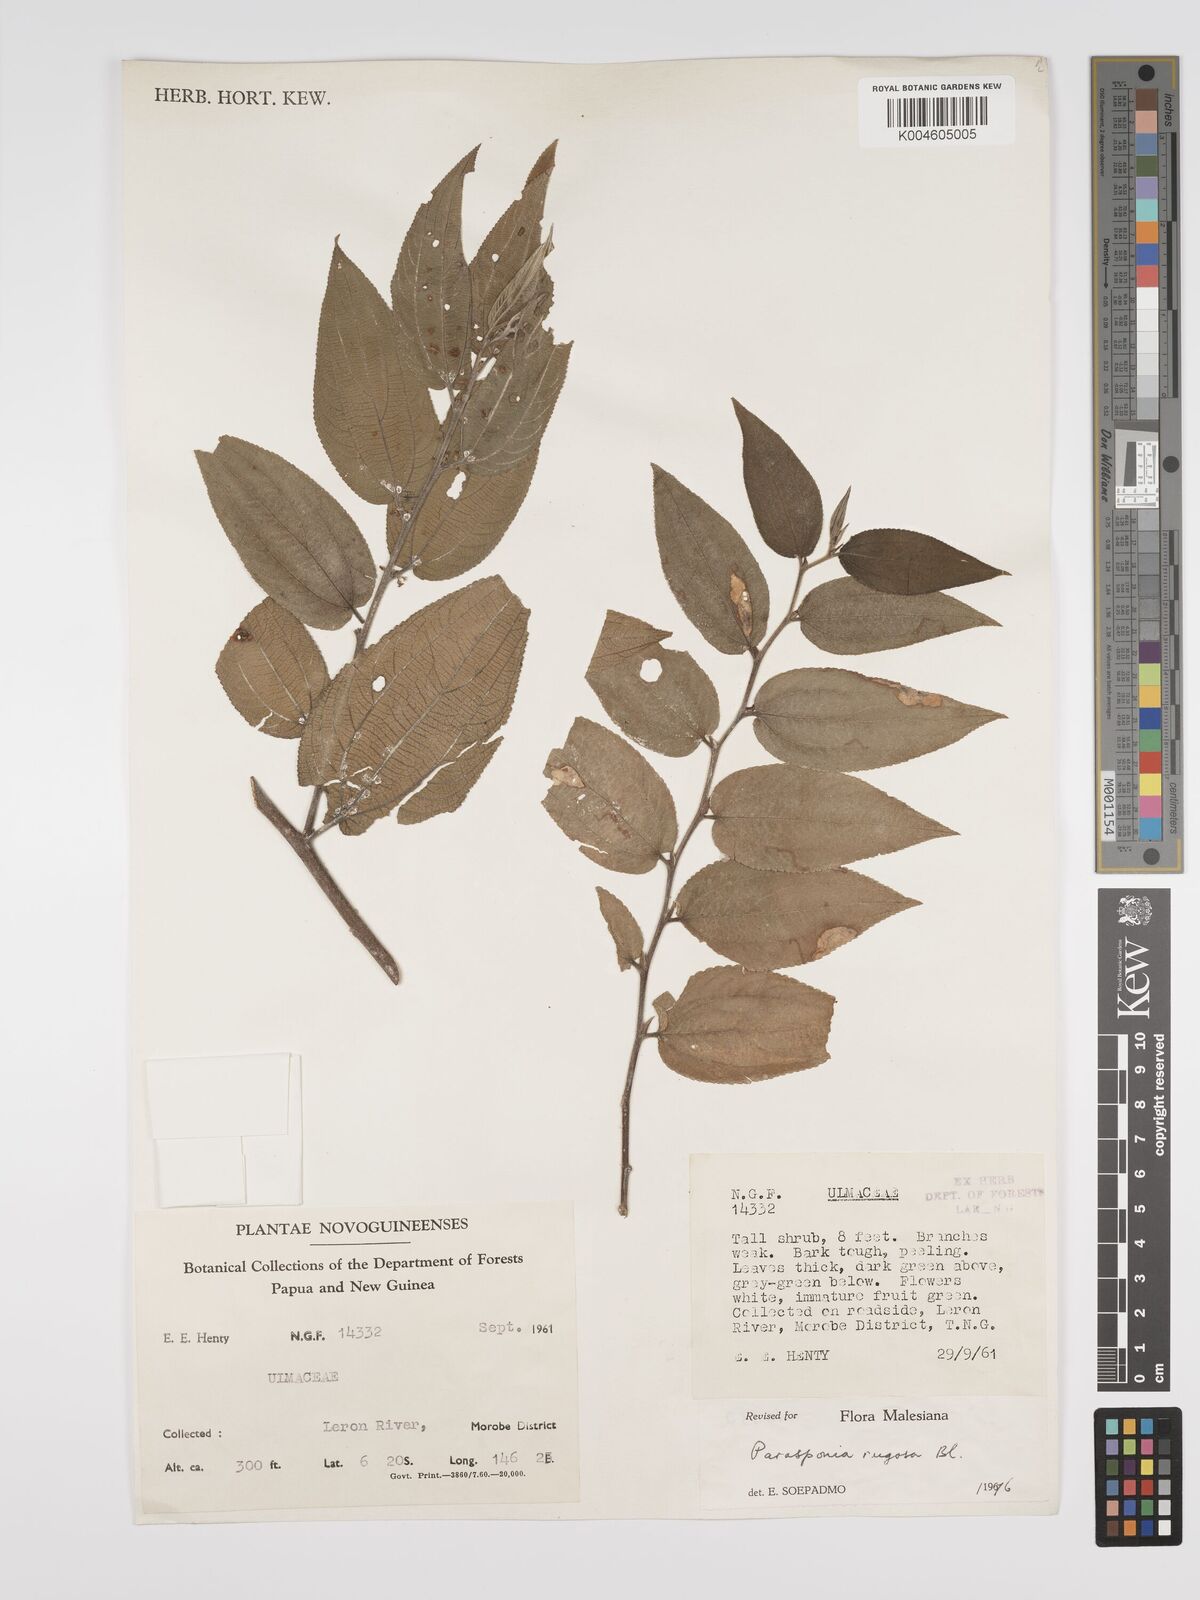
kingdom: Plantae
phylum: Tracheophyta
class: Magnoliopsida
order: Rosales
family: Cannabaceae
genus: Trema
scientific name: Trema eurhynchum
